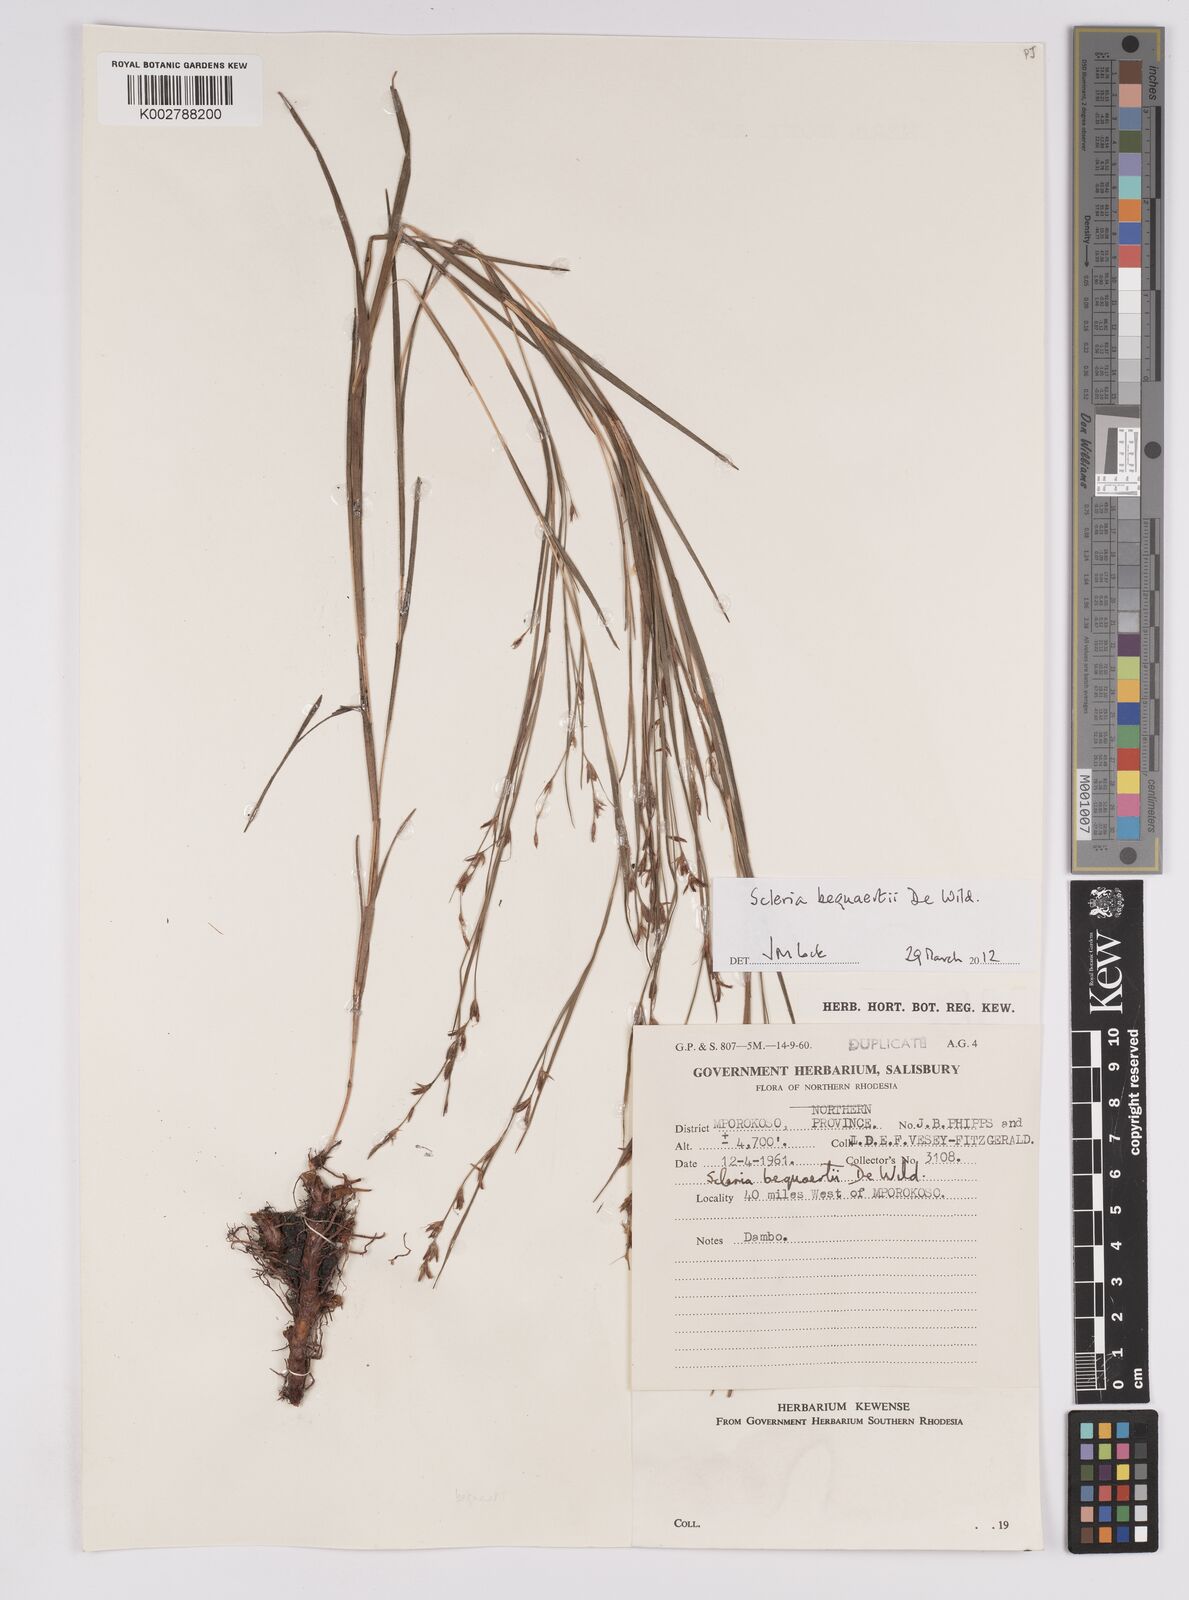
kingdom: Plantae
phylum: Tracheophyta
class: Liliopsida
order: Poales
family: Cyperaceae
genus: Scleria
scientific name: Scleria bequaertii
